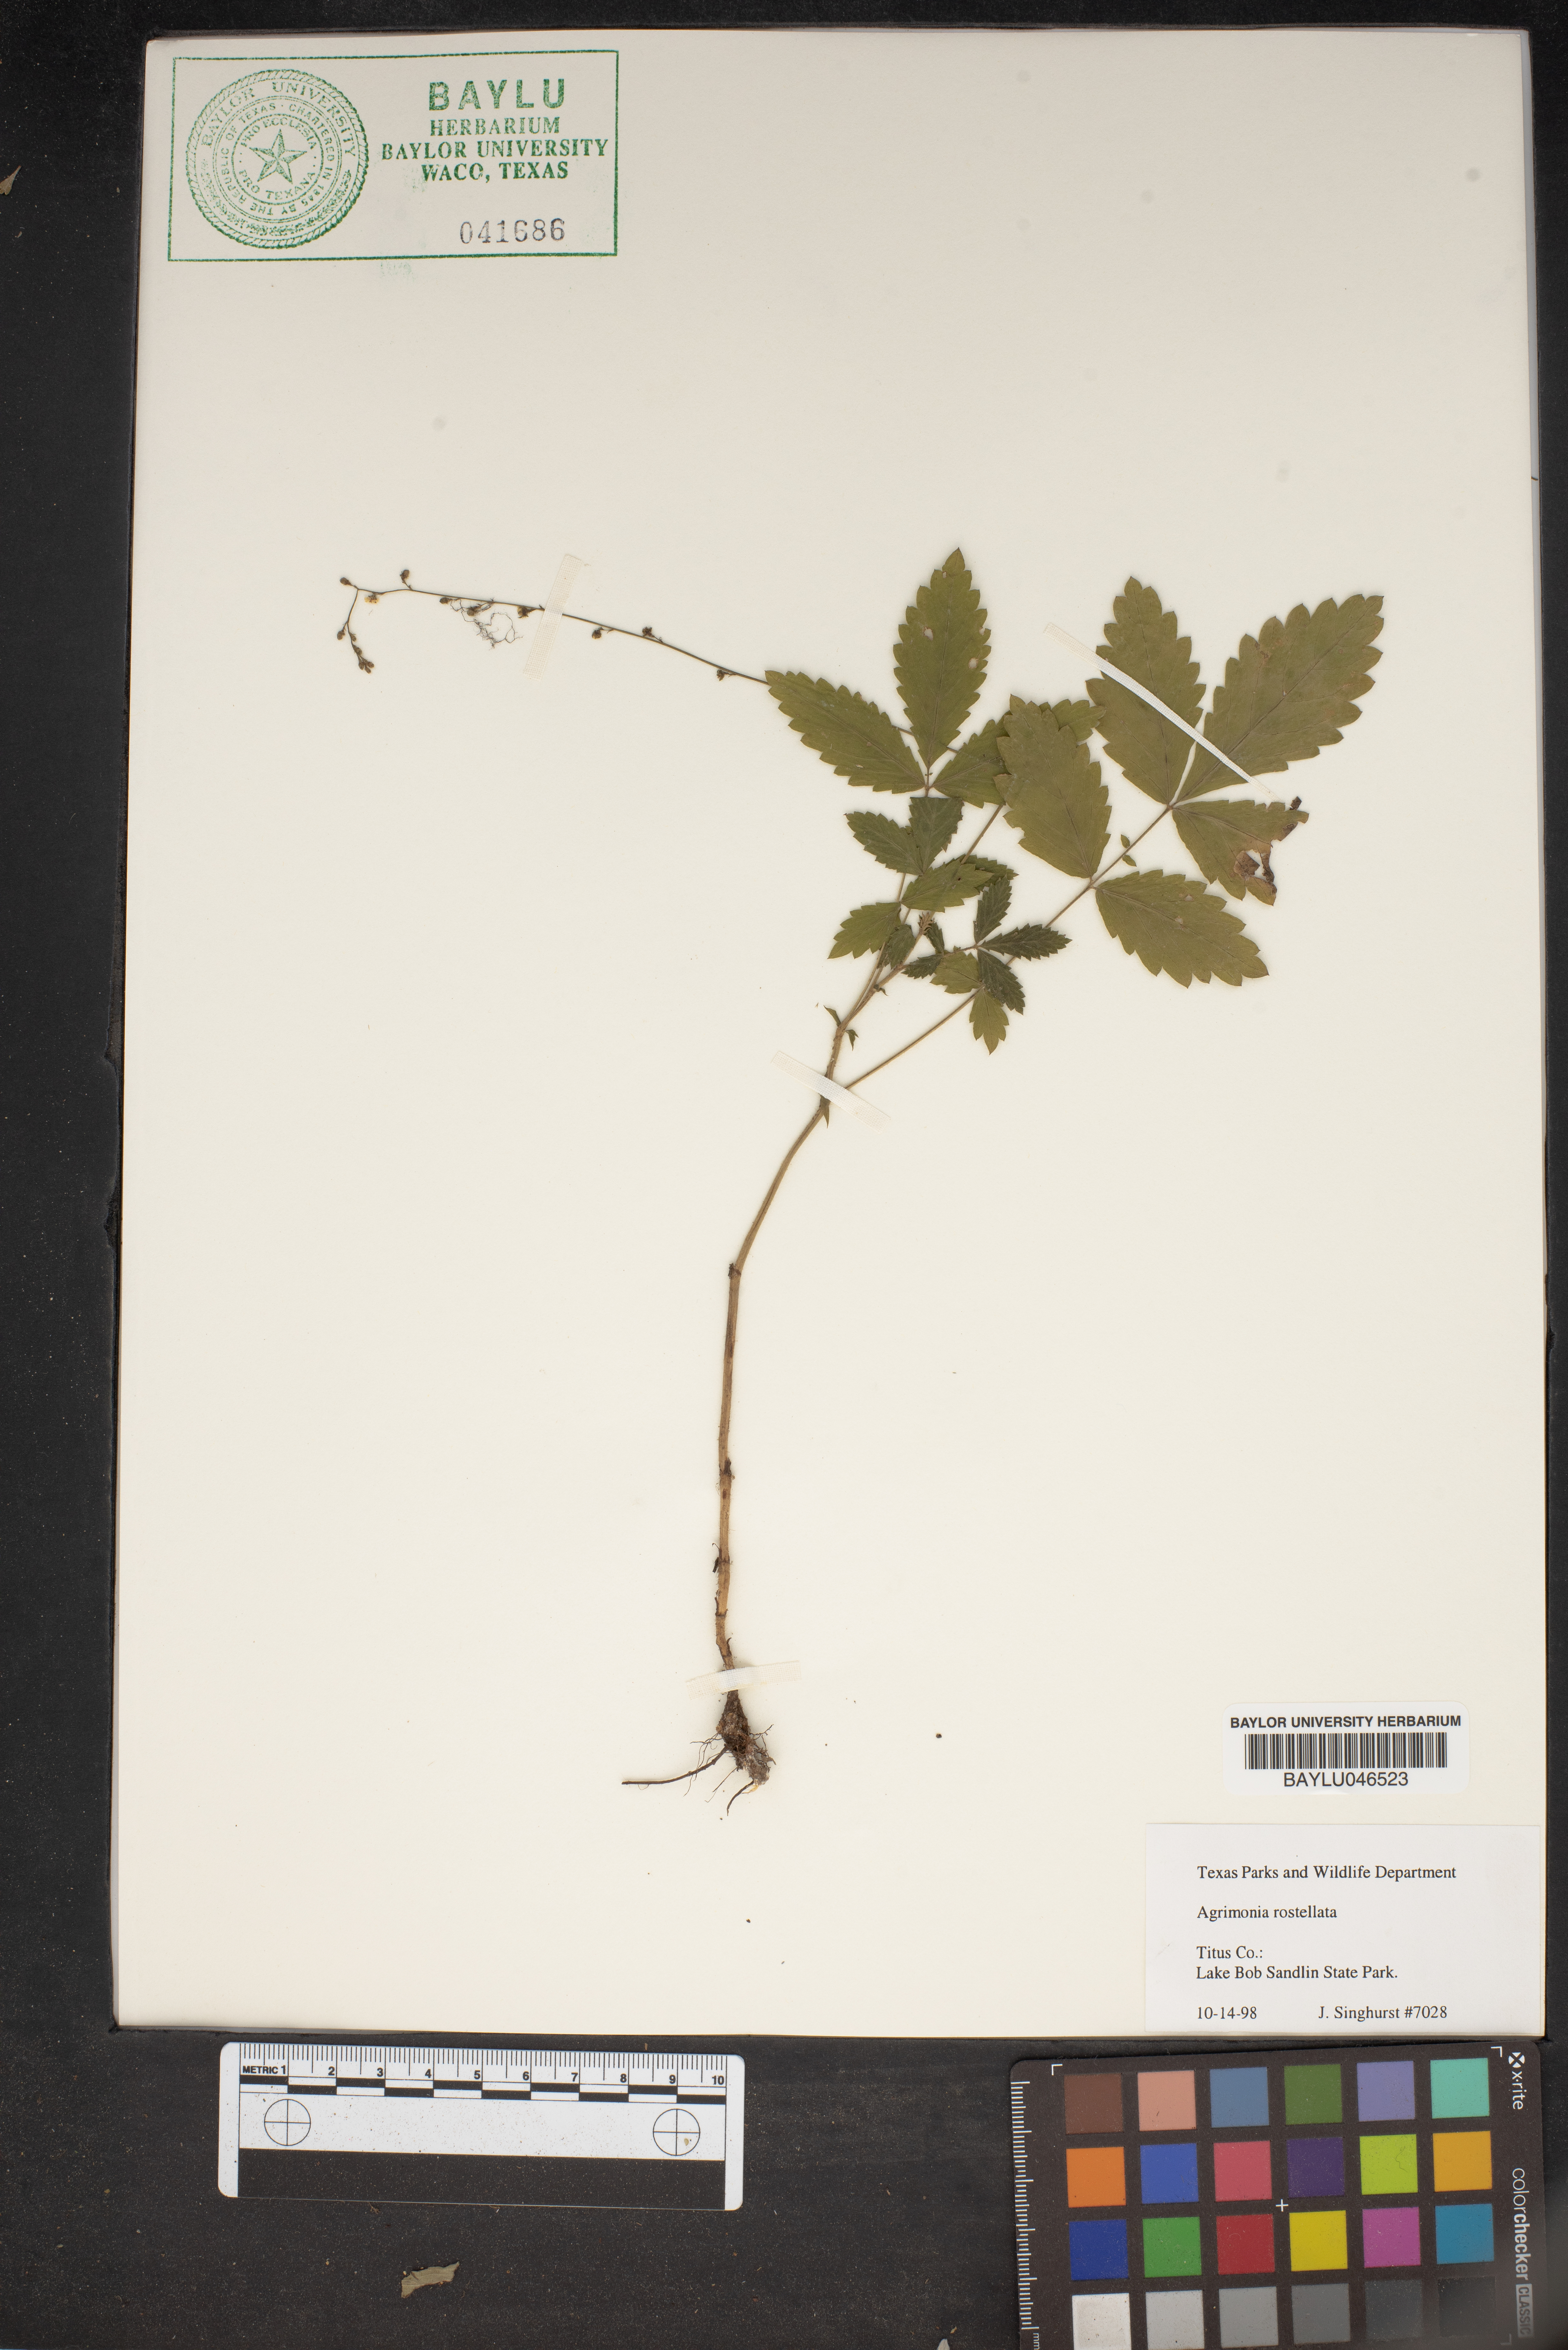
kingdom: Plantae
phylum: Tracheophyta
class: Magnoliopsida
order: Rosales
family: Rosaceae
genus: Agrimonia
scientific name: Agrimonia rostellata
